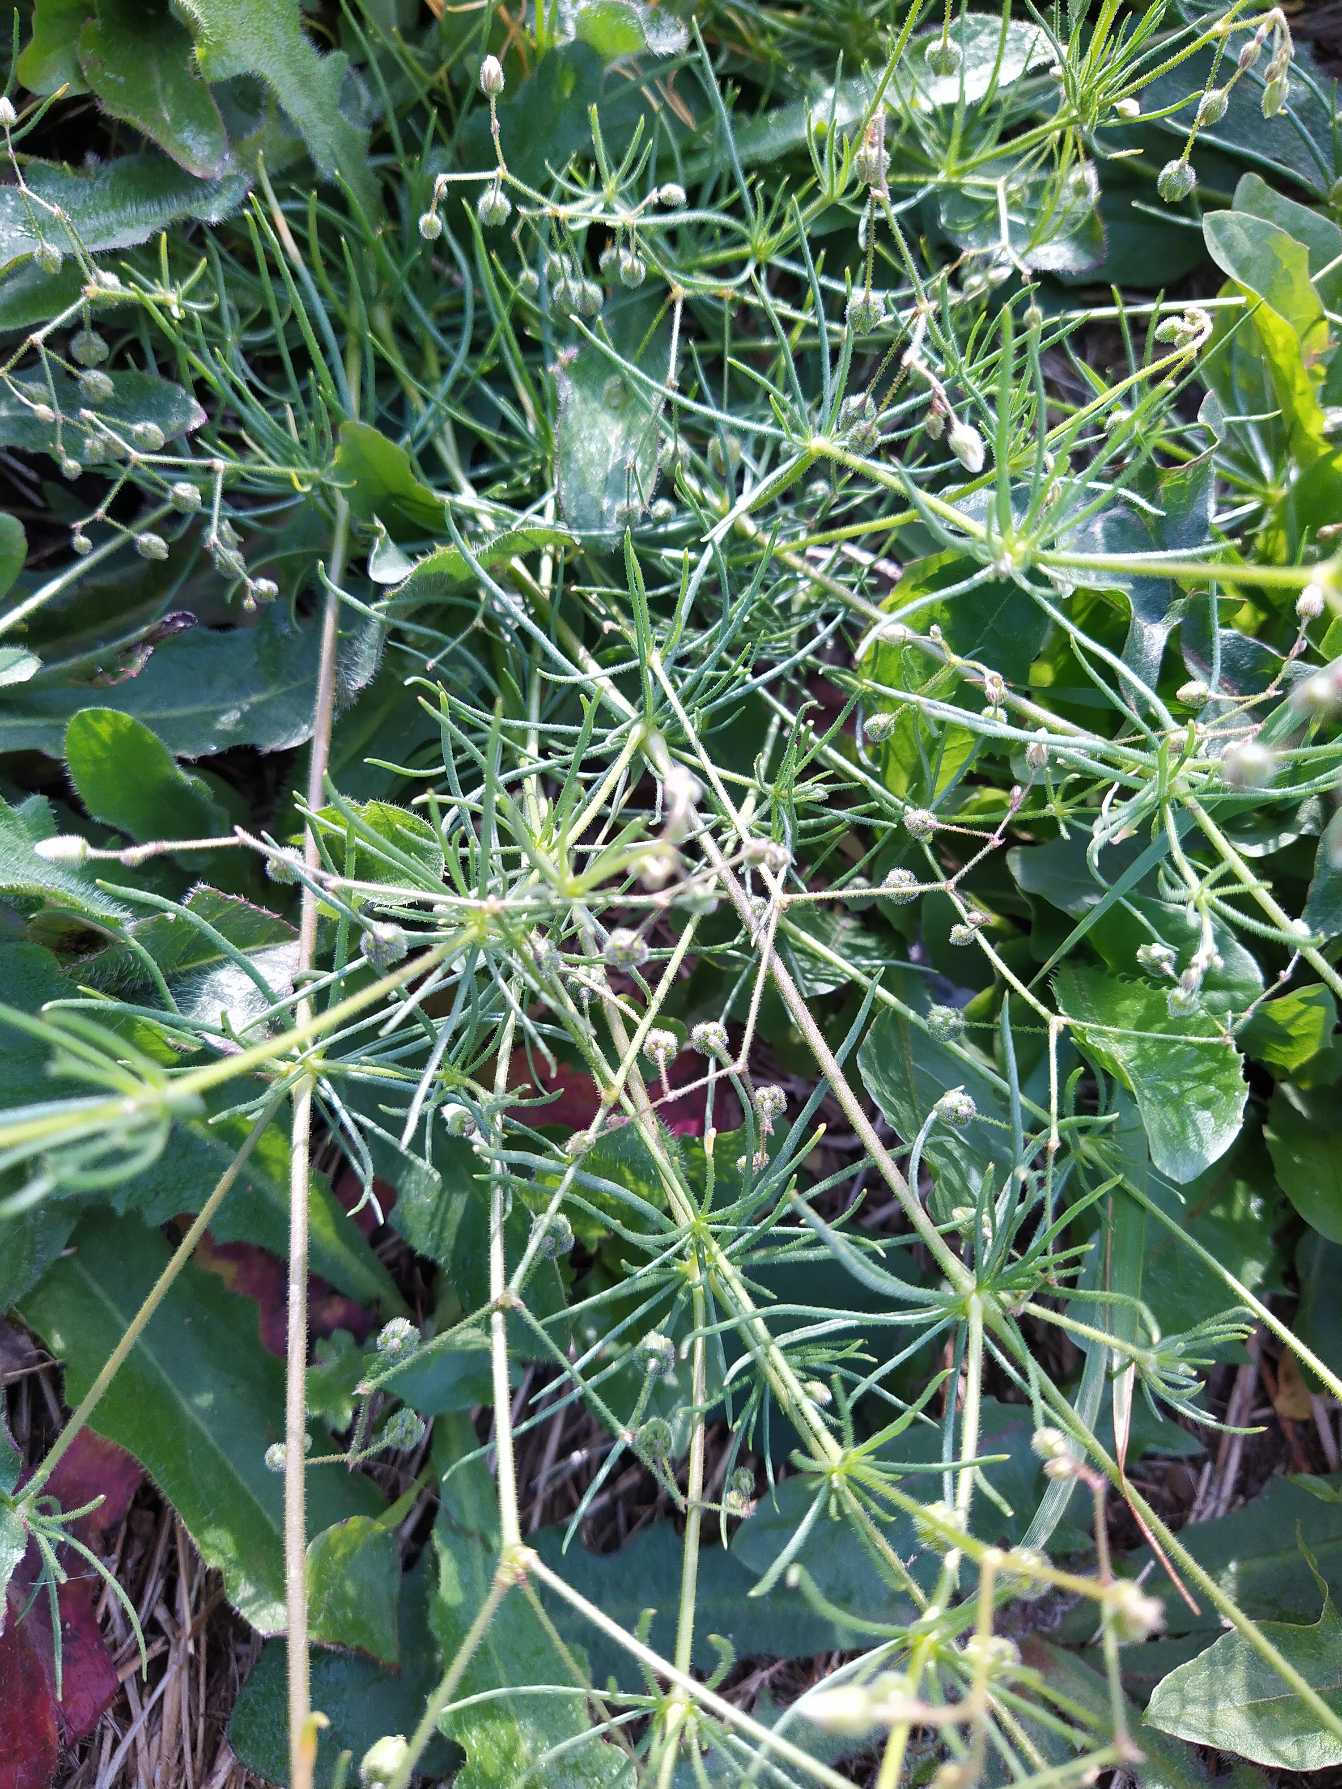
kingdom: Plantae
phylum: Tracheophyta
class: Magnoliopsida
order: Caryophyllales
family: Caryophyllaceae
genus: Spergula
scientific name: Spergula arvensis
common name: Almindelig spergel
